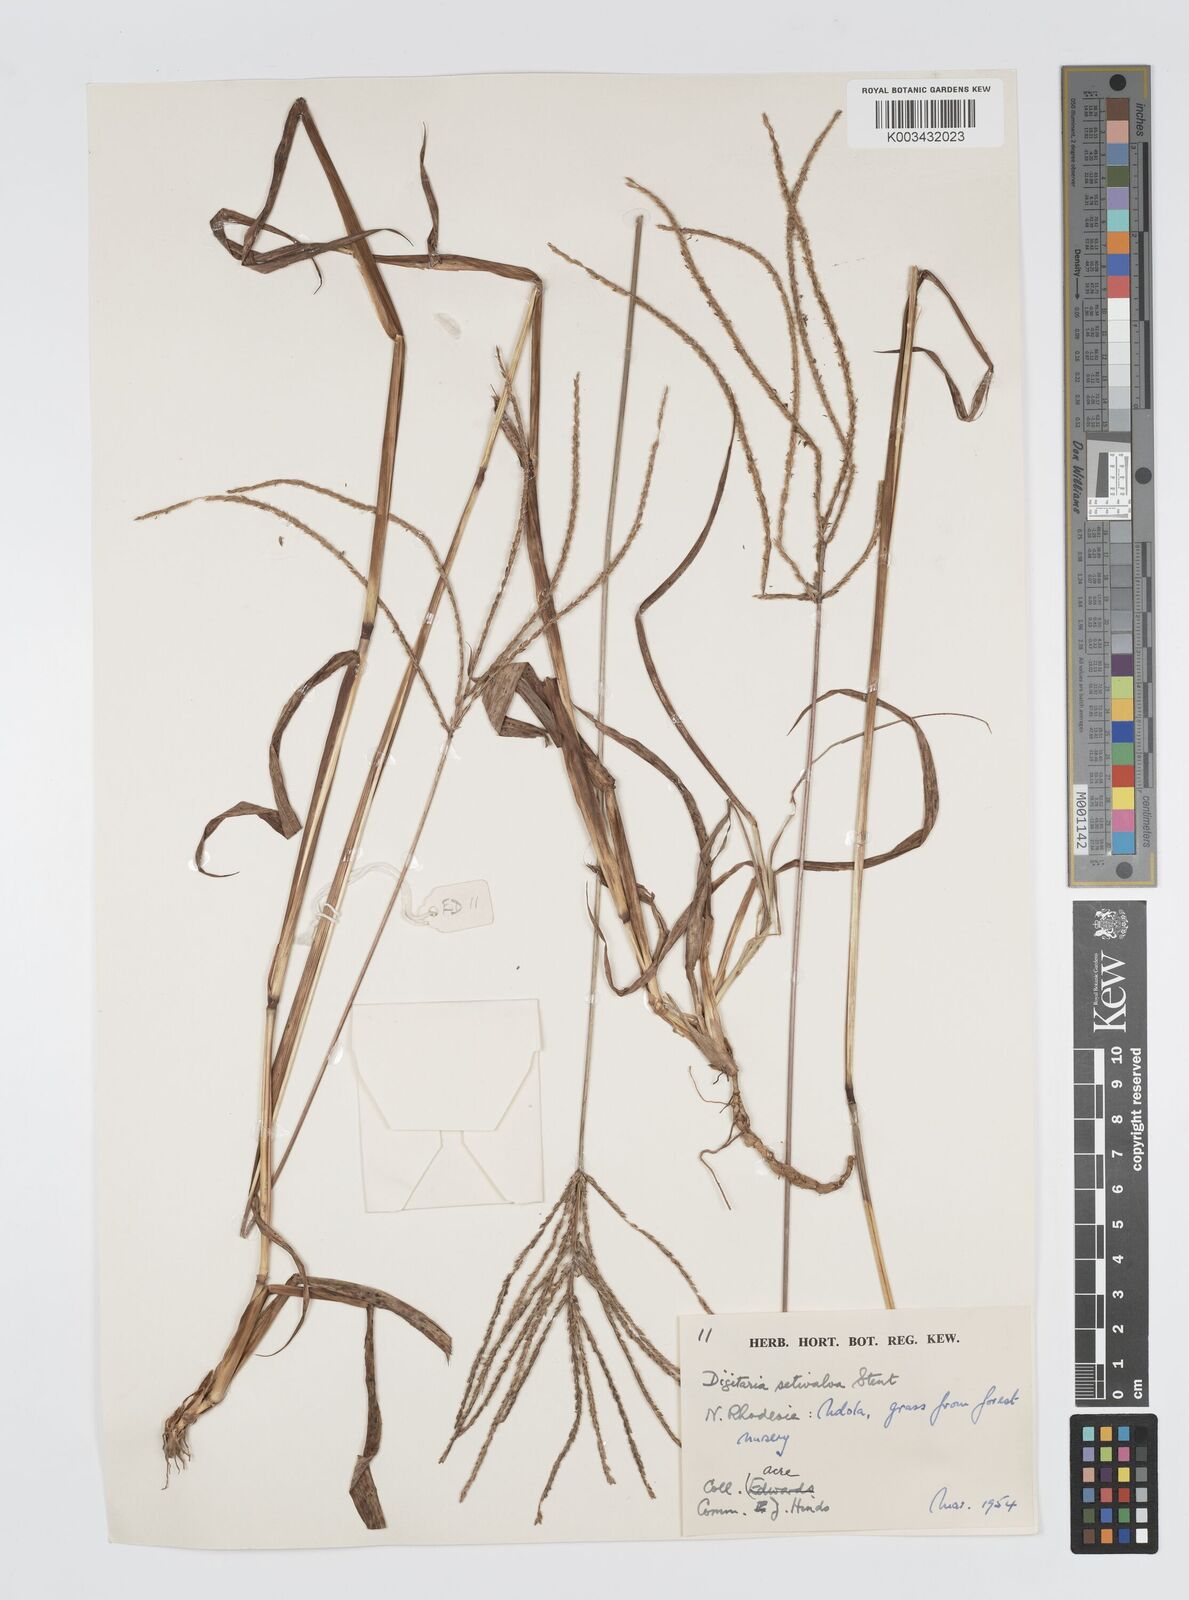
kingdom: Plantae
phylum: Tracheophyta
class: Liliopsida
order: Poales
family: Poaceae
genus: Digitaria
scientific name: Digitaria milanjiana
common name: Madagascar crabgrass
